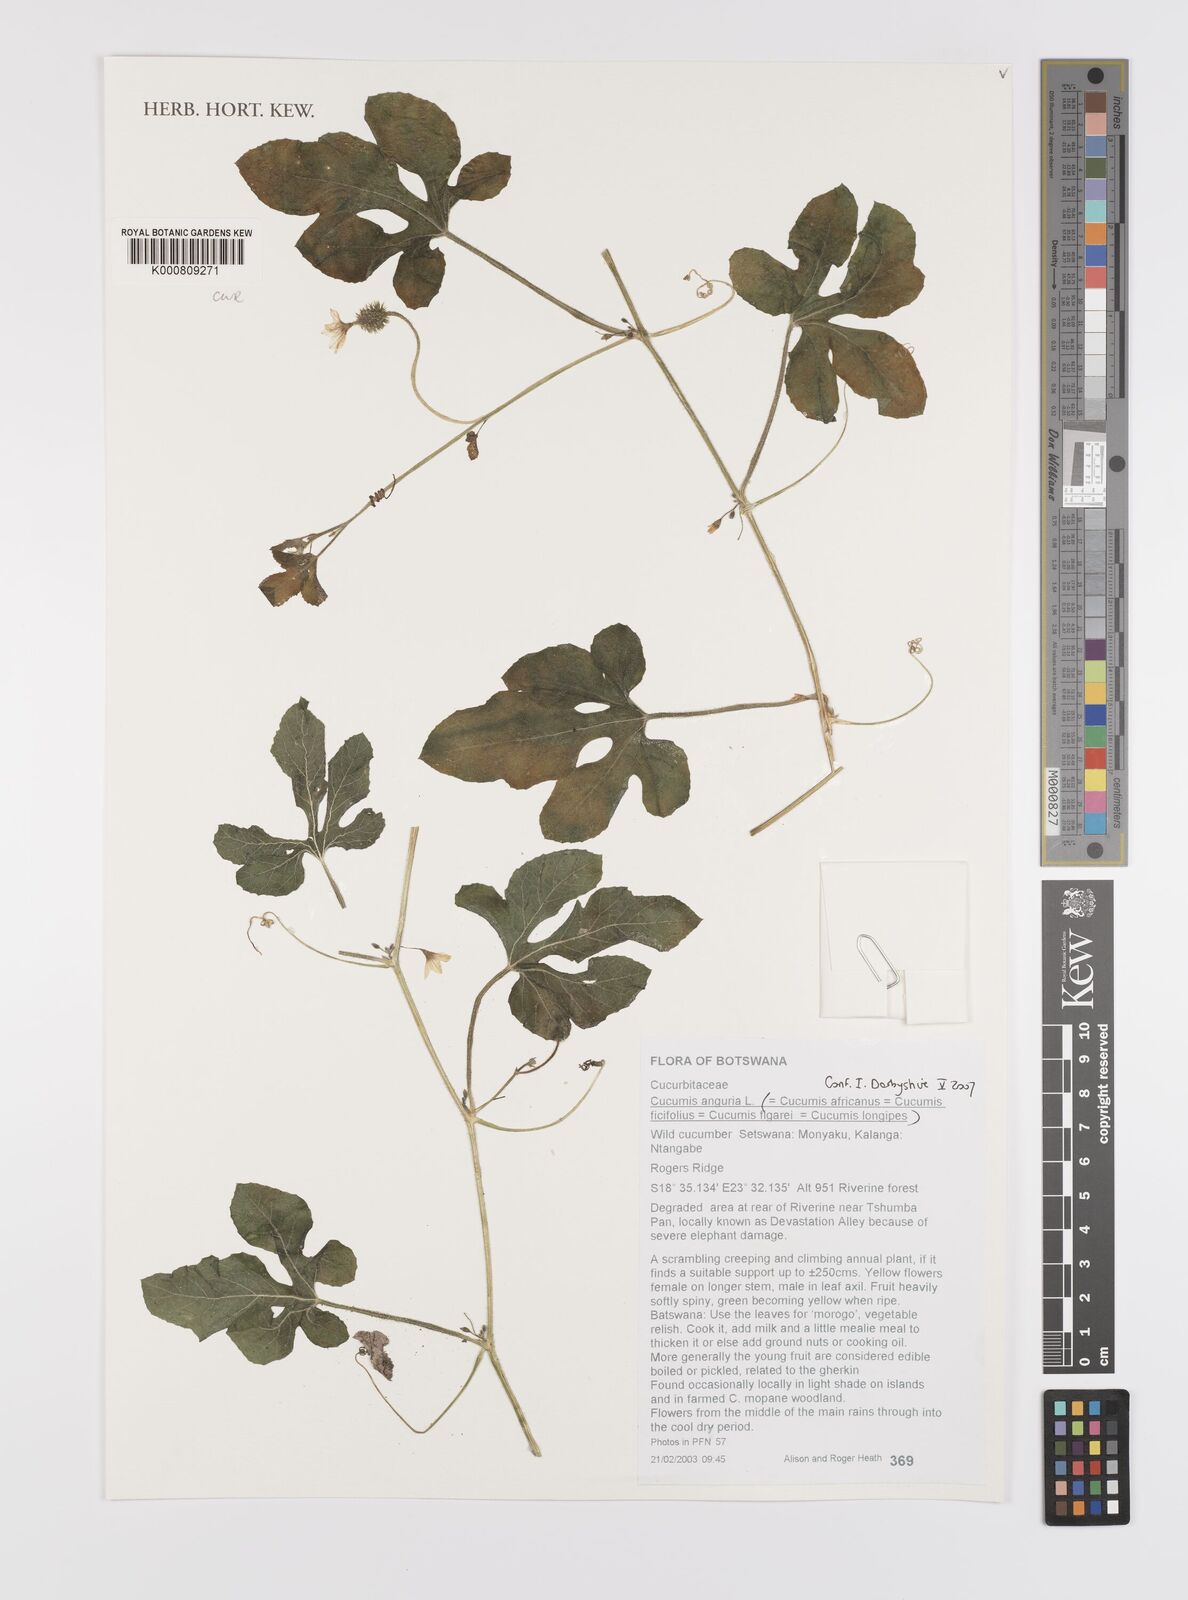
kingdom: Plantae
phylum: Tracheophyta
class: Magnoliopsida
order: Cucurbitales
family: Cucurbitaceae
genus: Cucumis
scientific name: Cucumis anguria
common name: West indian gherkin
